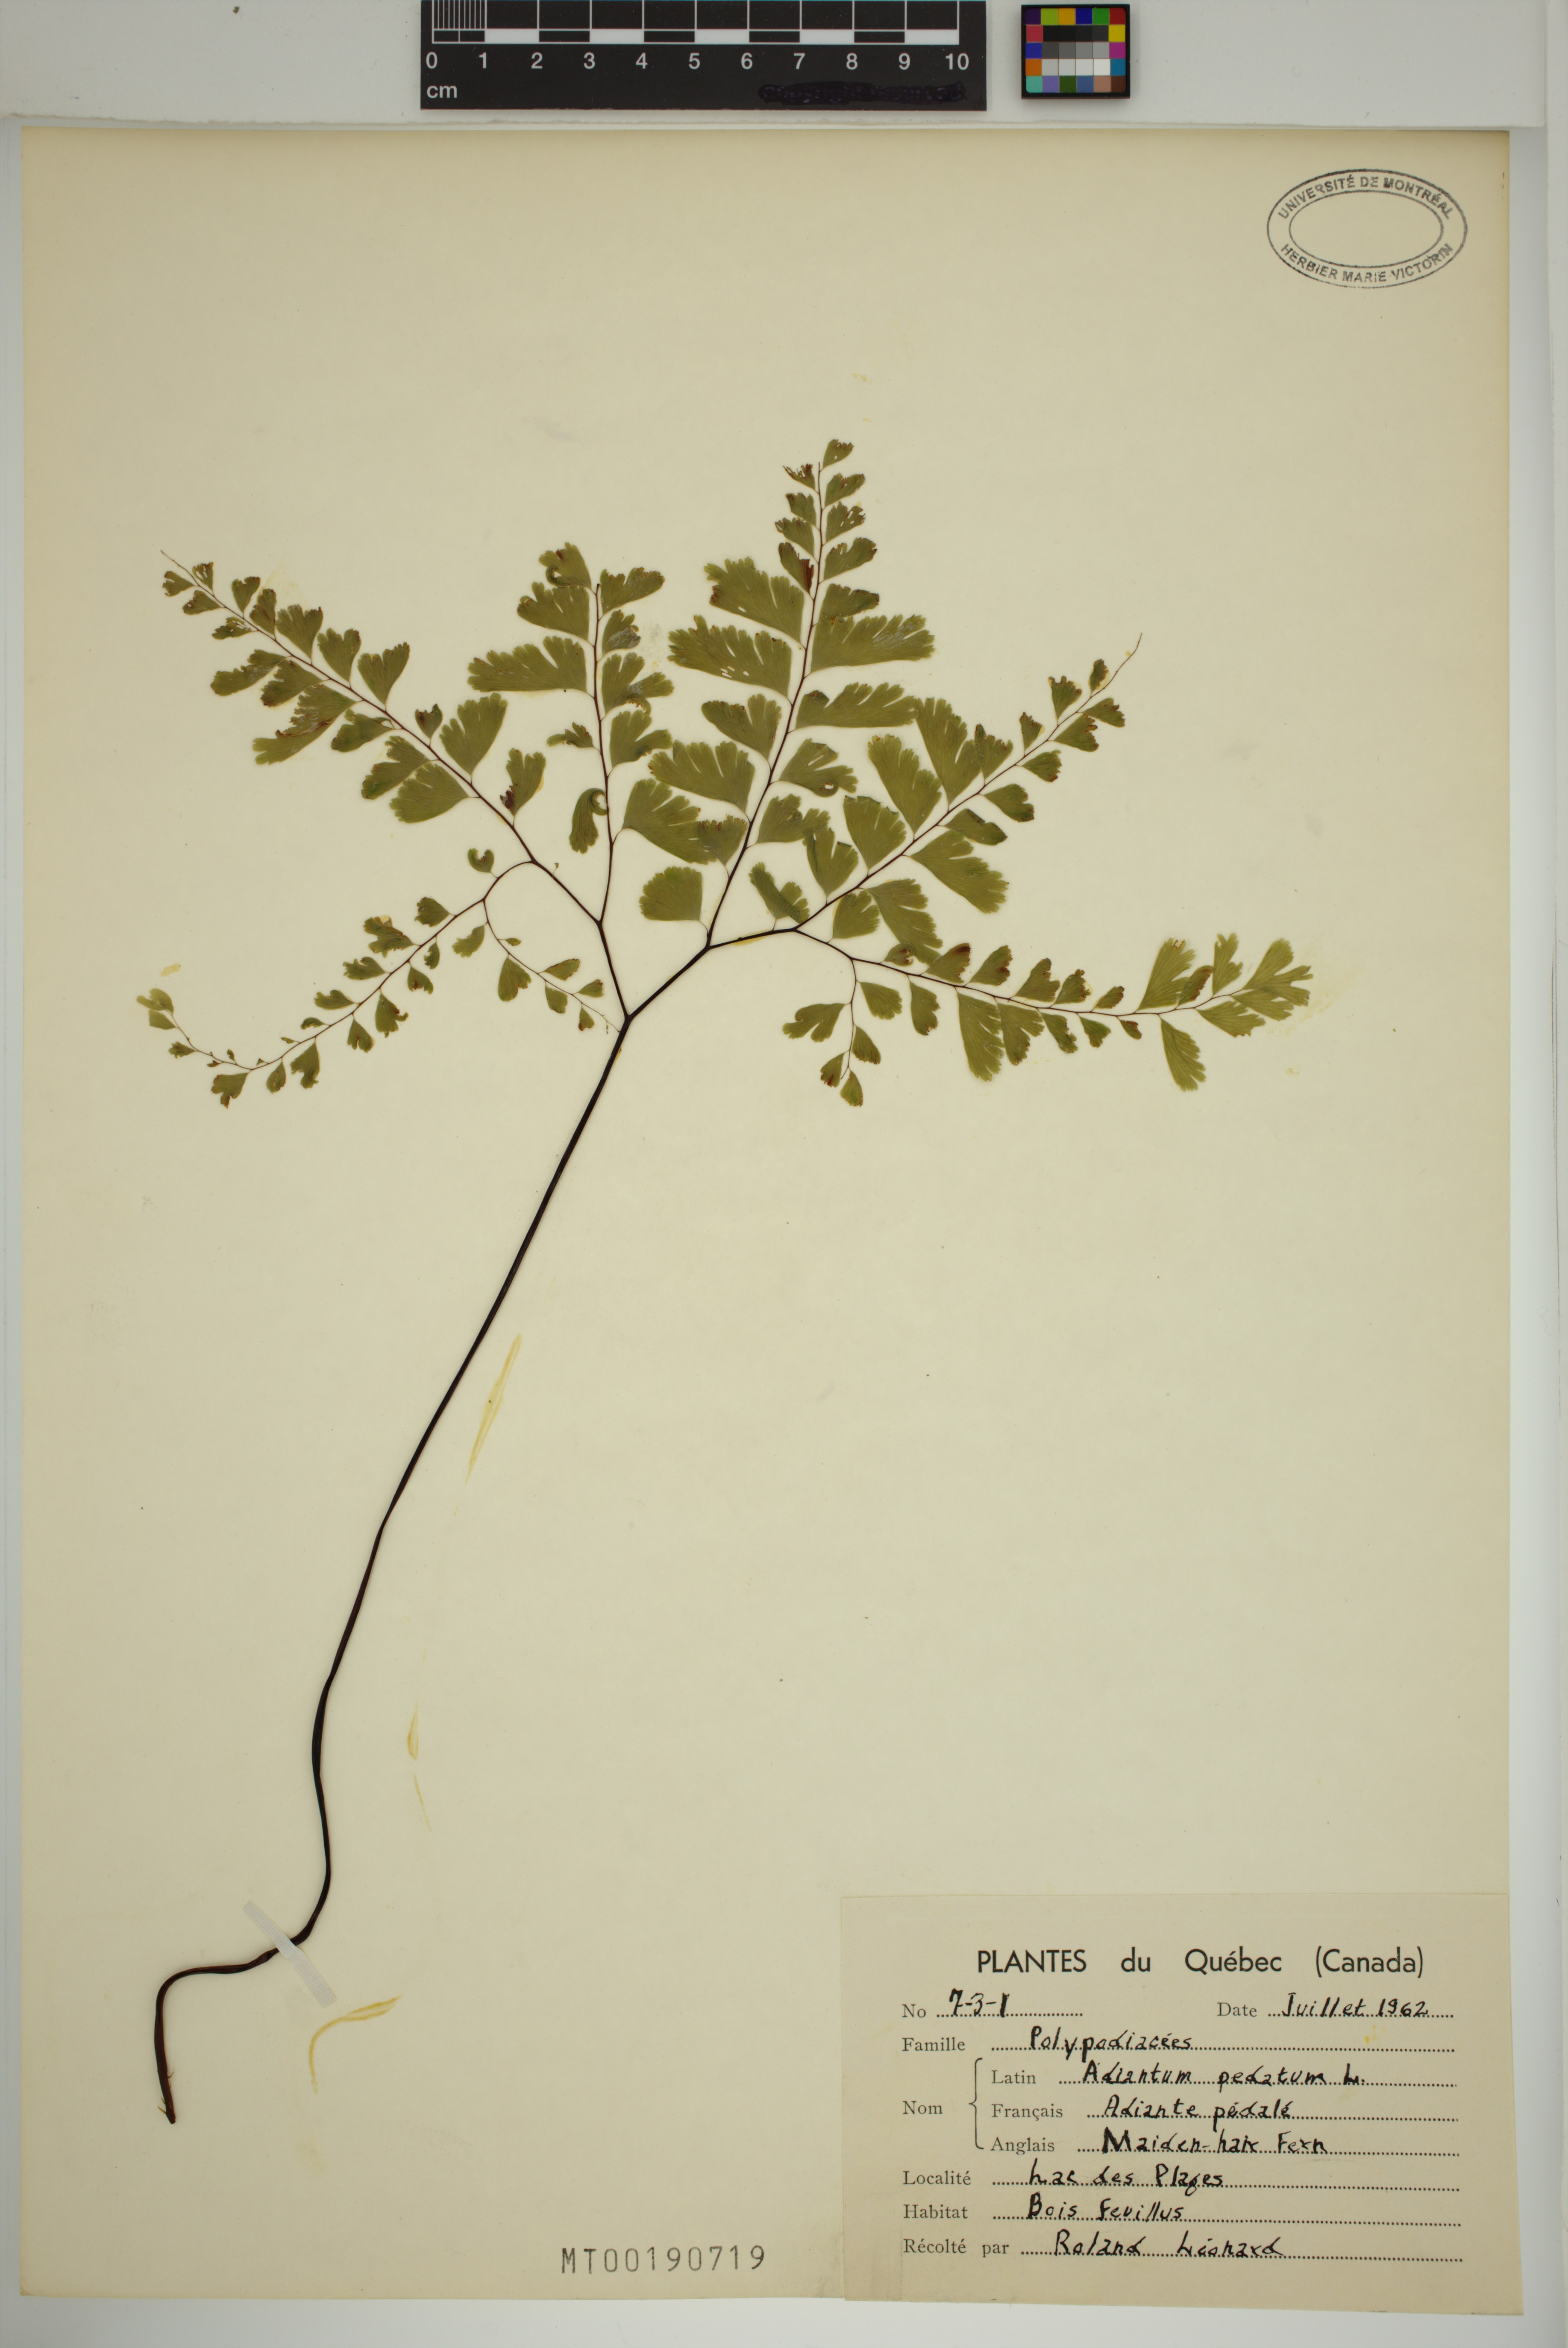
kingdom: Plantae
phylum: Tracheophyta
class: Polypodiopsida
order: Polypodiales
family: Pteridaceae
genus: Adiantum
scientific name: Adiantum pedatum
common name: Five-finger fern
